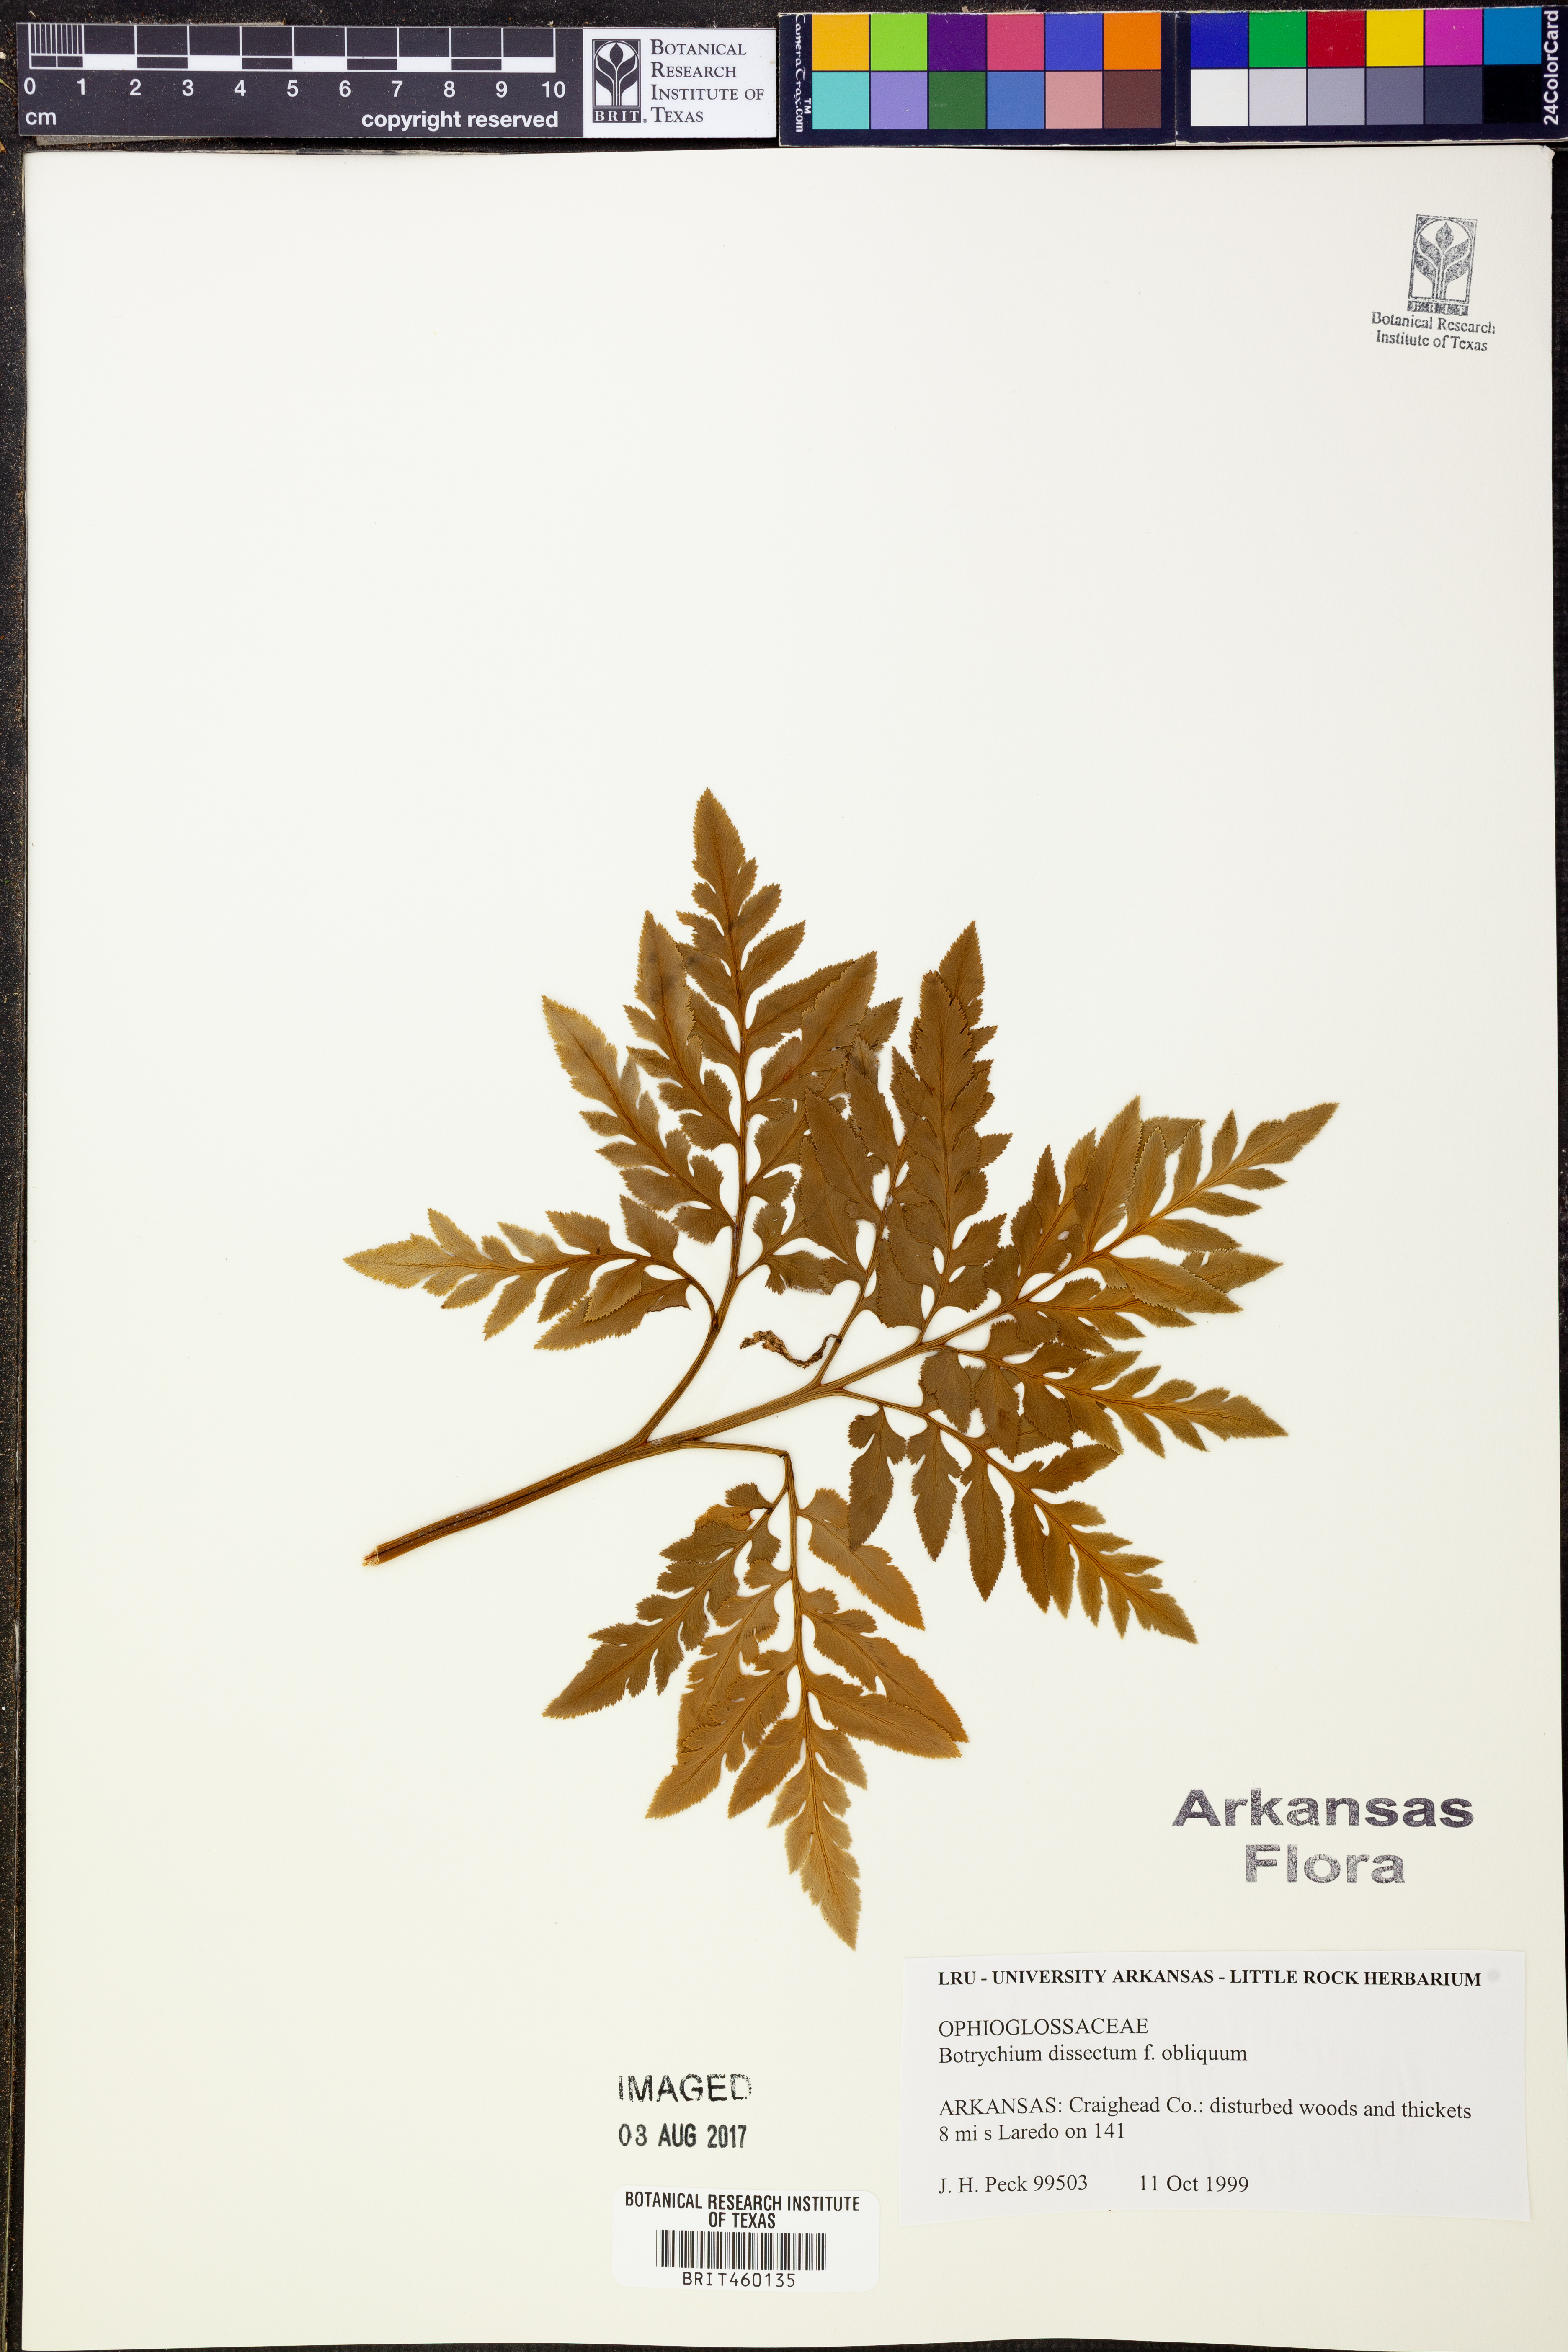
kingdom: Plantae
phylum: Tracheophyta
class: Polypodiopsida
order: Ophioglossales
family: Ophioglossaceae
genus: Sceptridium
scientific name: Sceptridium dissectum
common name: Cut-leaved grapefern
